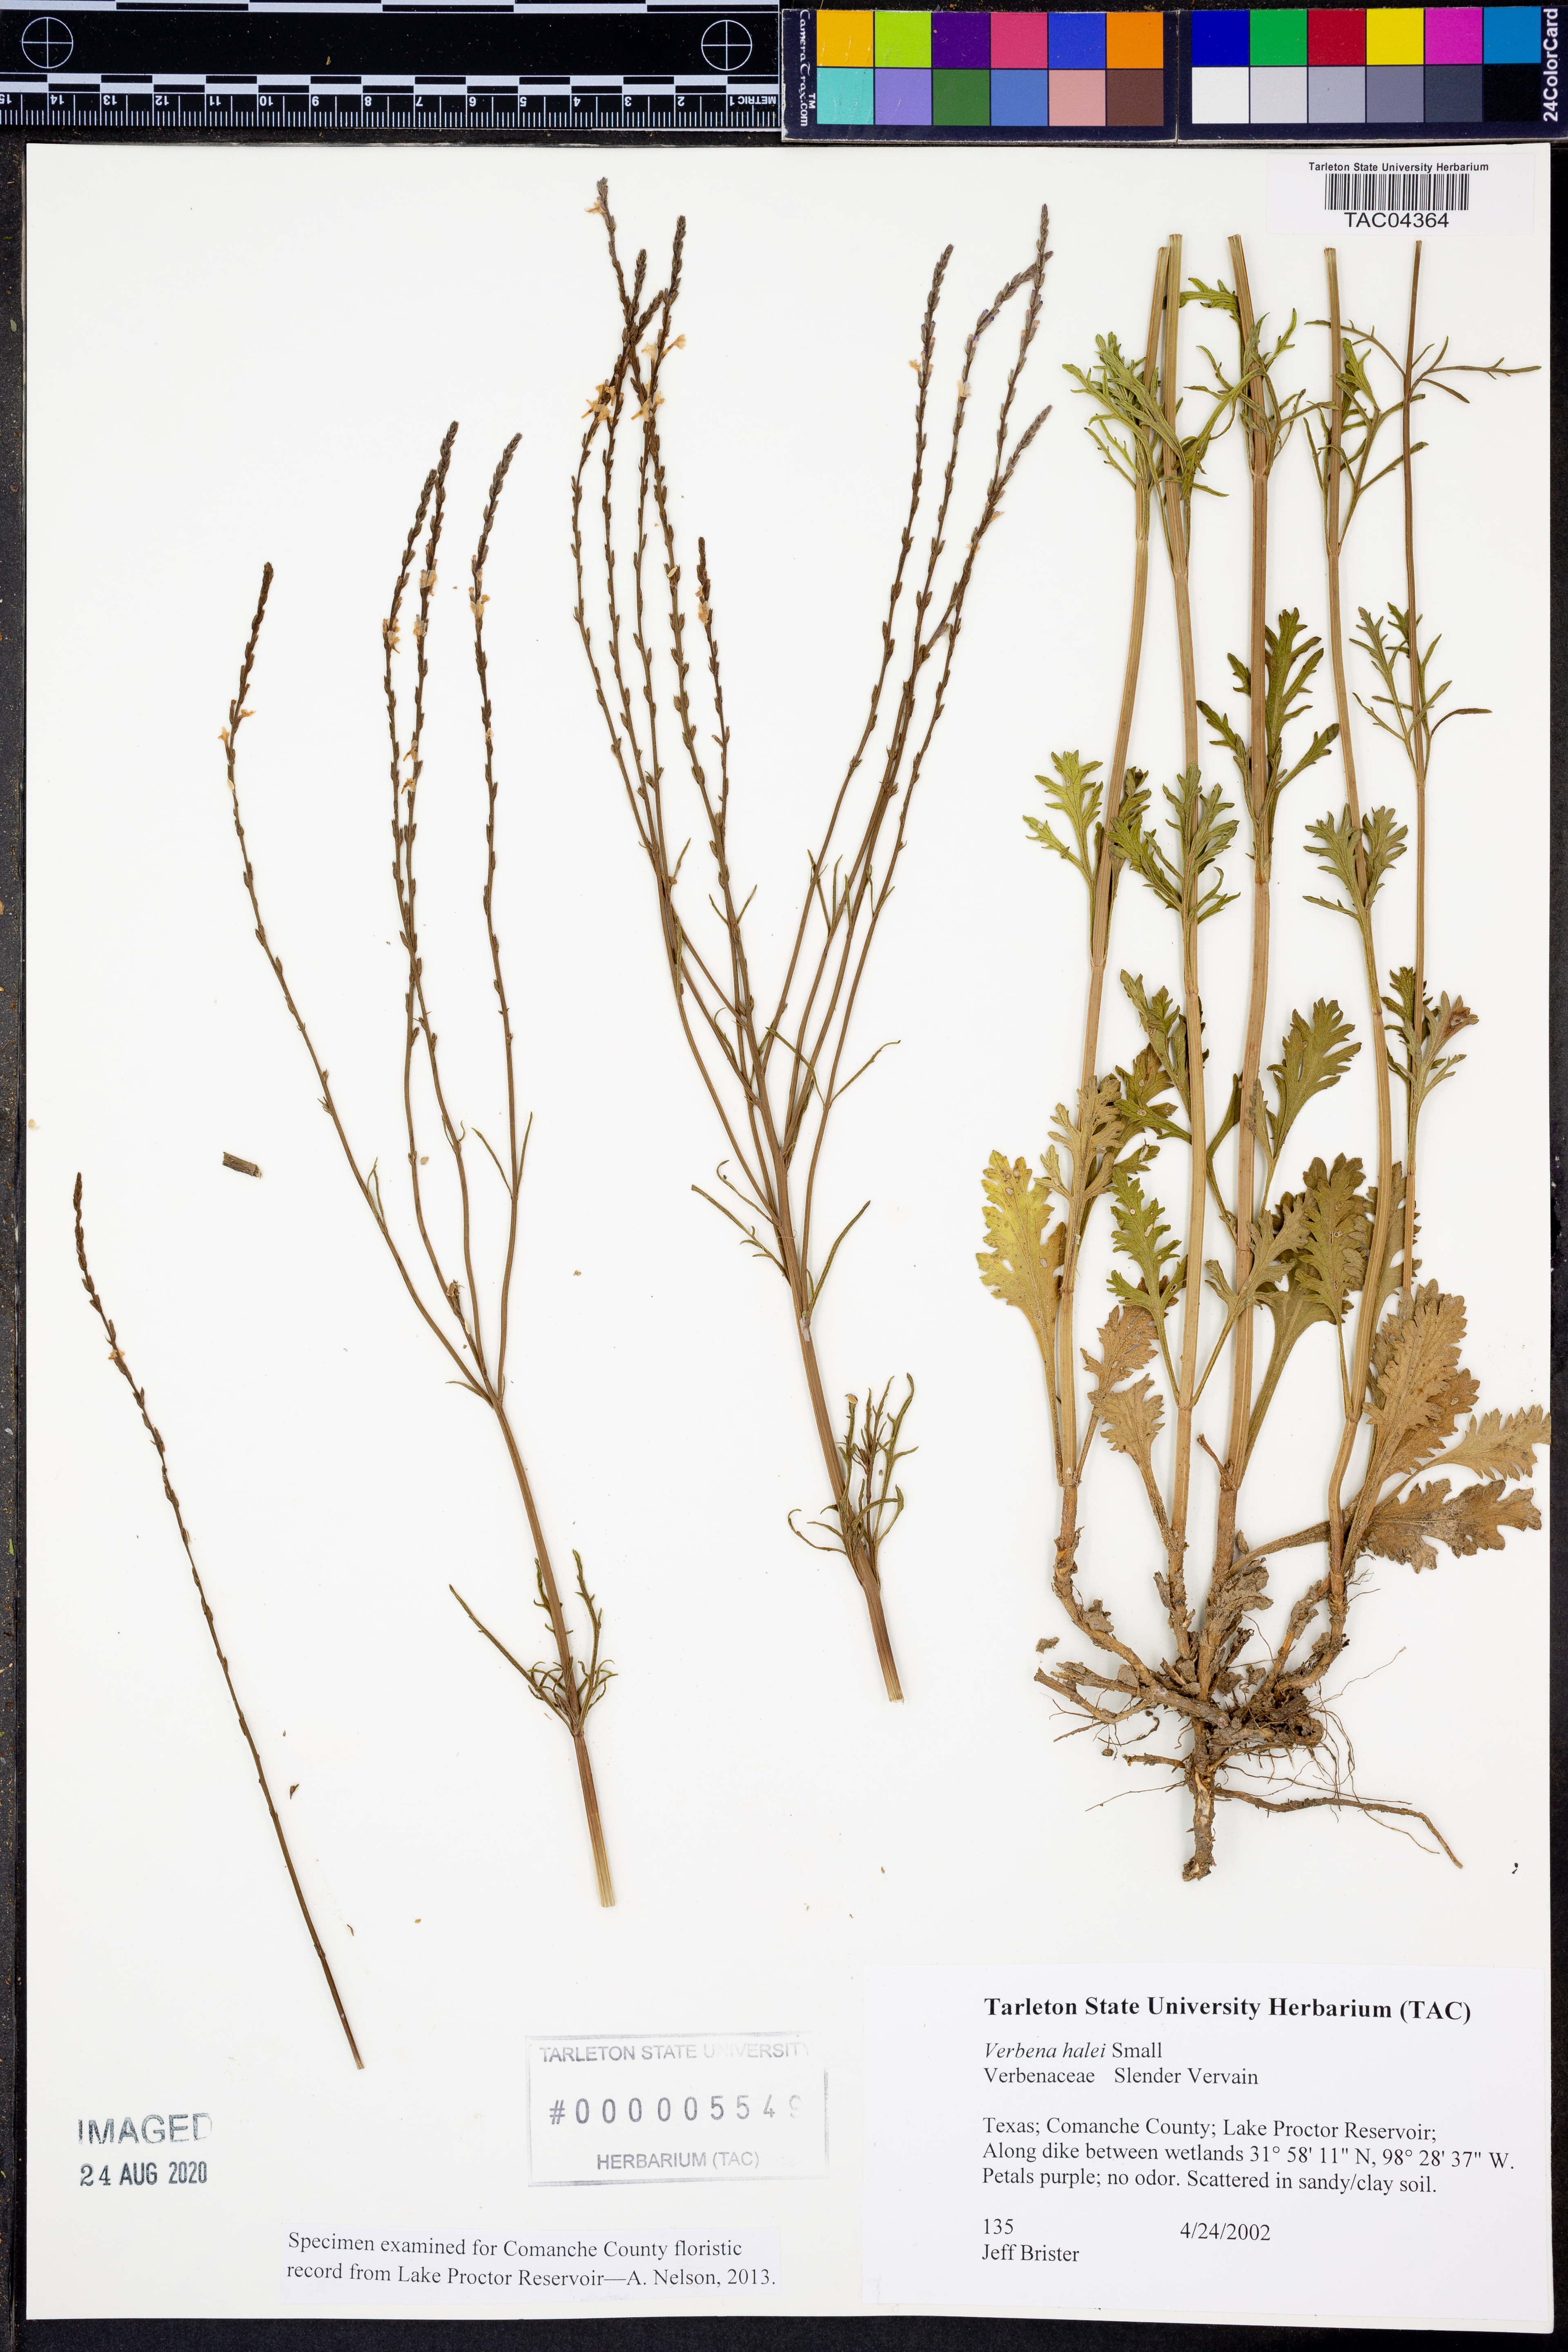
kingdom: Plantae
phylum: Tracheophyta
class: Magnoliopsida
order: Lamiales
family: Verbenaceae
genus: Verbena
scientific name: Verbena halei
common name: Texas vervain
